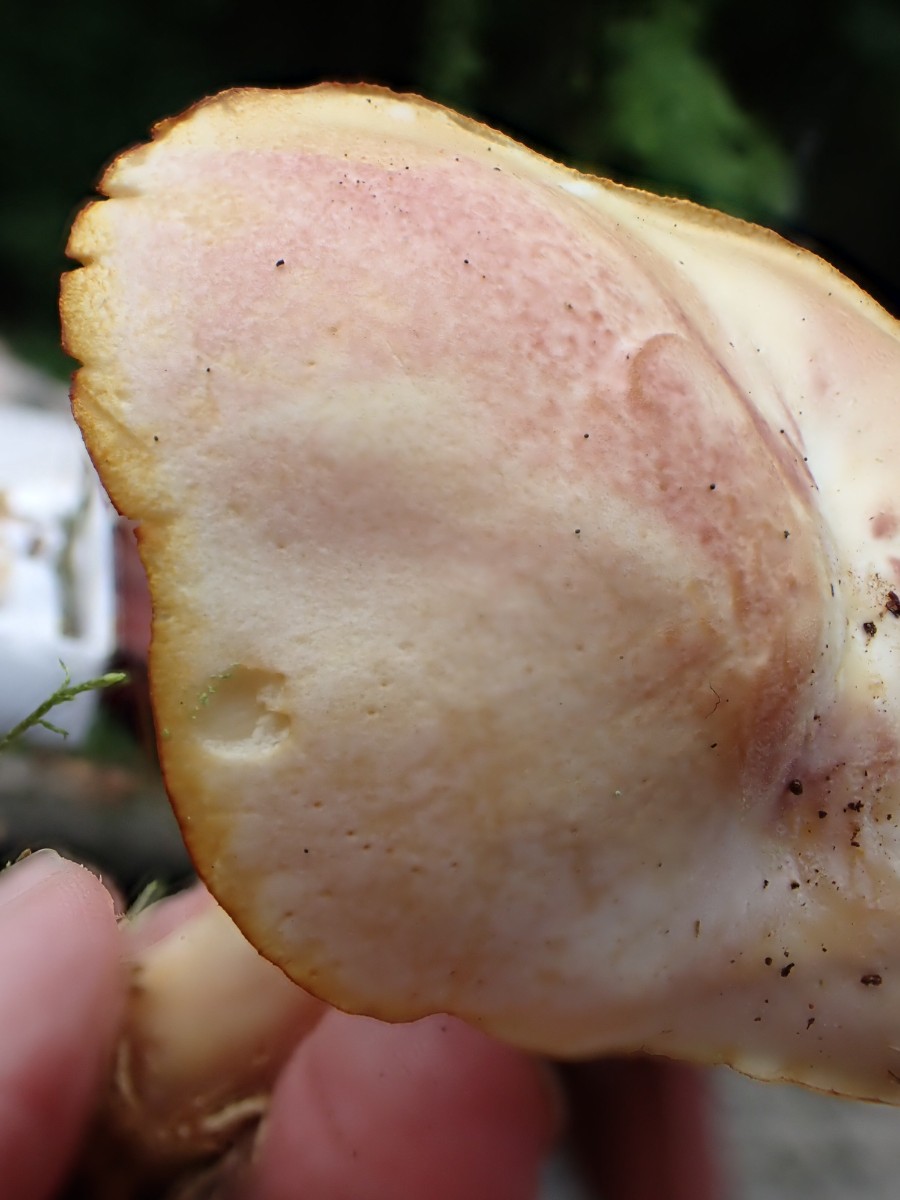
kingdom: Fungi
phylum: Basidiomycota
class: Agaricomycetes
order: Agaricales
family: Tricholomataceae
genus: Tricholomopsis
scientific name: Tricholomopsis rutilans
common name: purpur-væbnerhat
